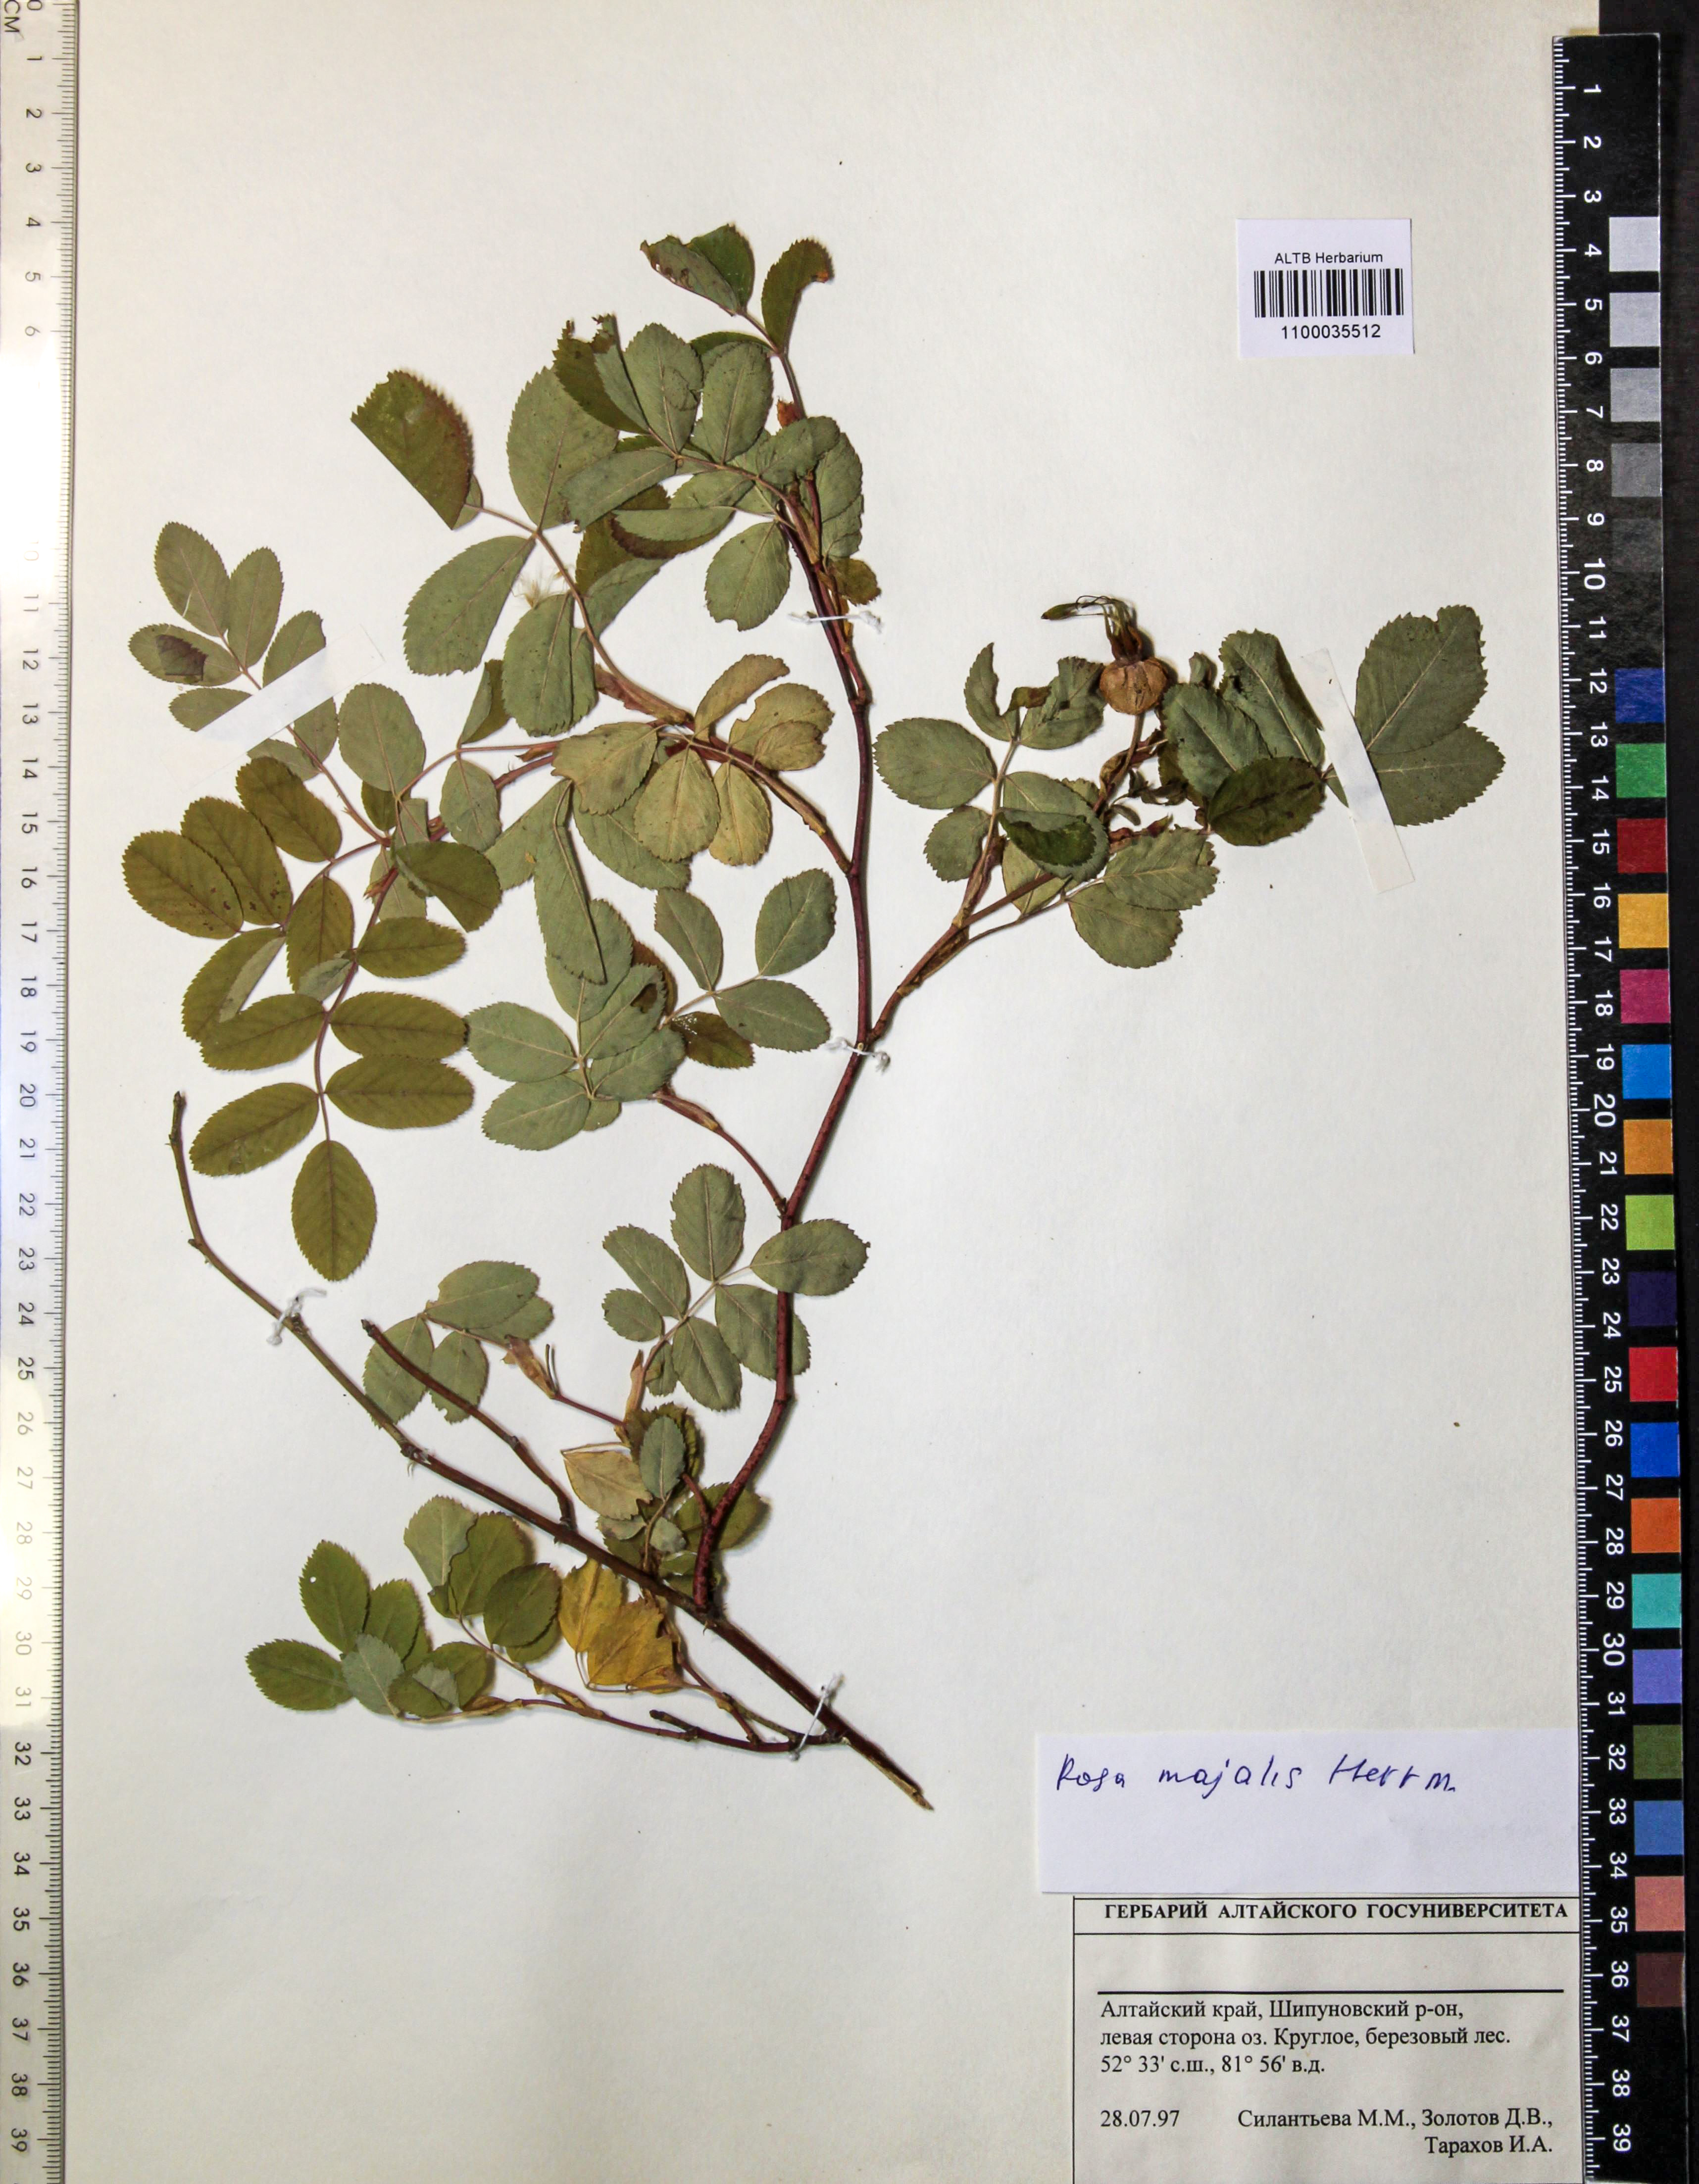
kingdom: Plantae
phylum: Tracheophyta
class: Magnoliopsida
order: Rosales
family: Rosaceae
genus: Rosa
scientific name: Rosa majalis
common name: Cinnamon rose
